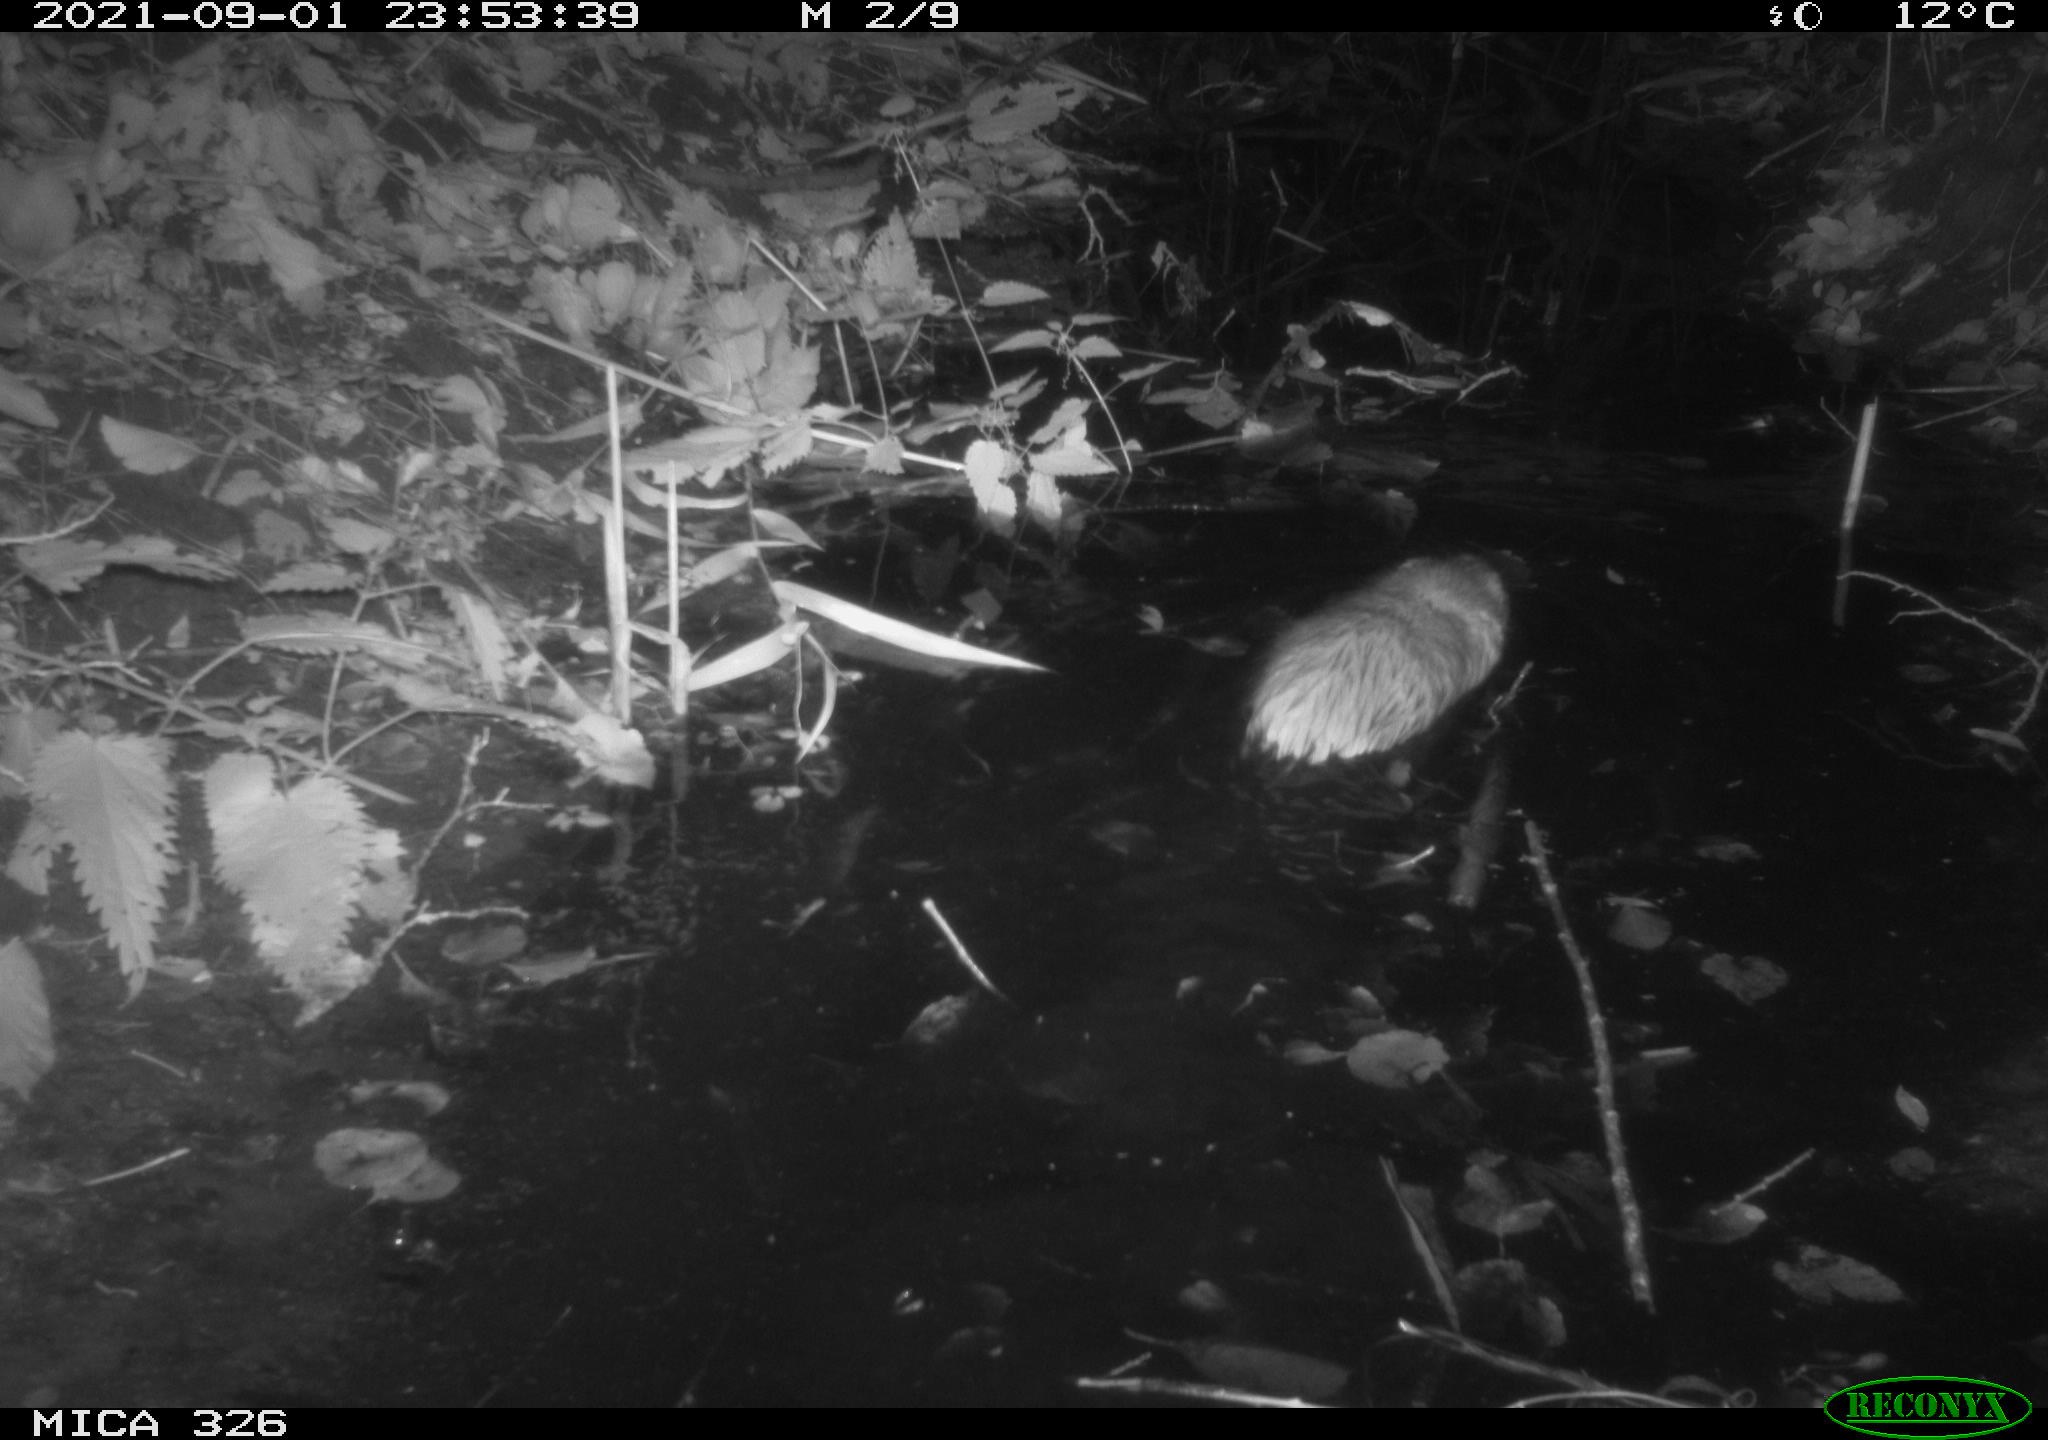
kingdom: Animalia
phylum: Chordata
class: Mammalia
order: Rodentia
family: Cricetidae
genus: Ondatra
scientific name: Ondatra zibethicus
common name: Muskrat
